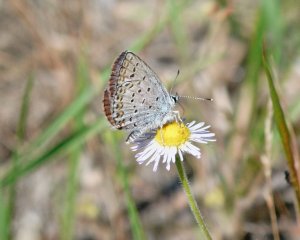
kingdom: Animalia
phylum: Arthropoda
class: Insecta
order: Lepidoptera
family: Lycaenidae
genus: Lycaeides
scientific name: Lycaeides melissa
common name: Melissa Blue
